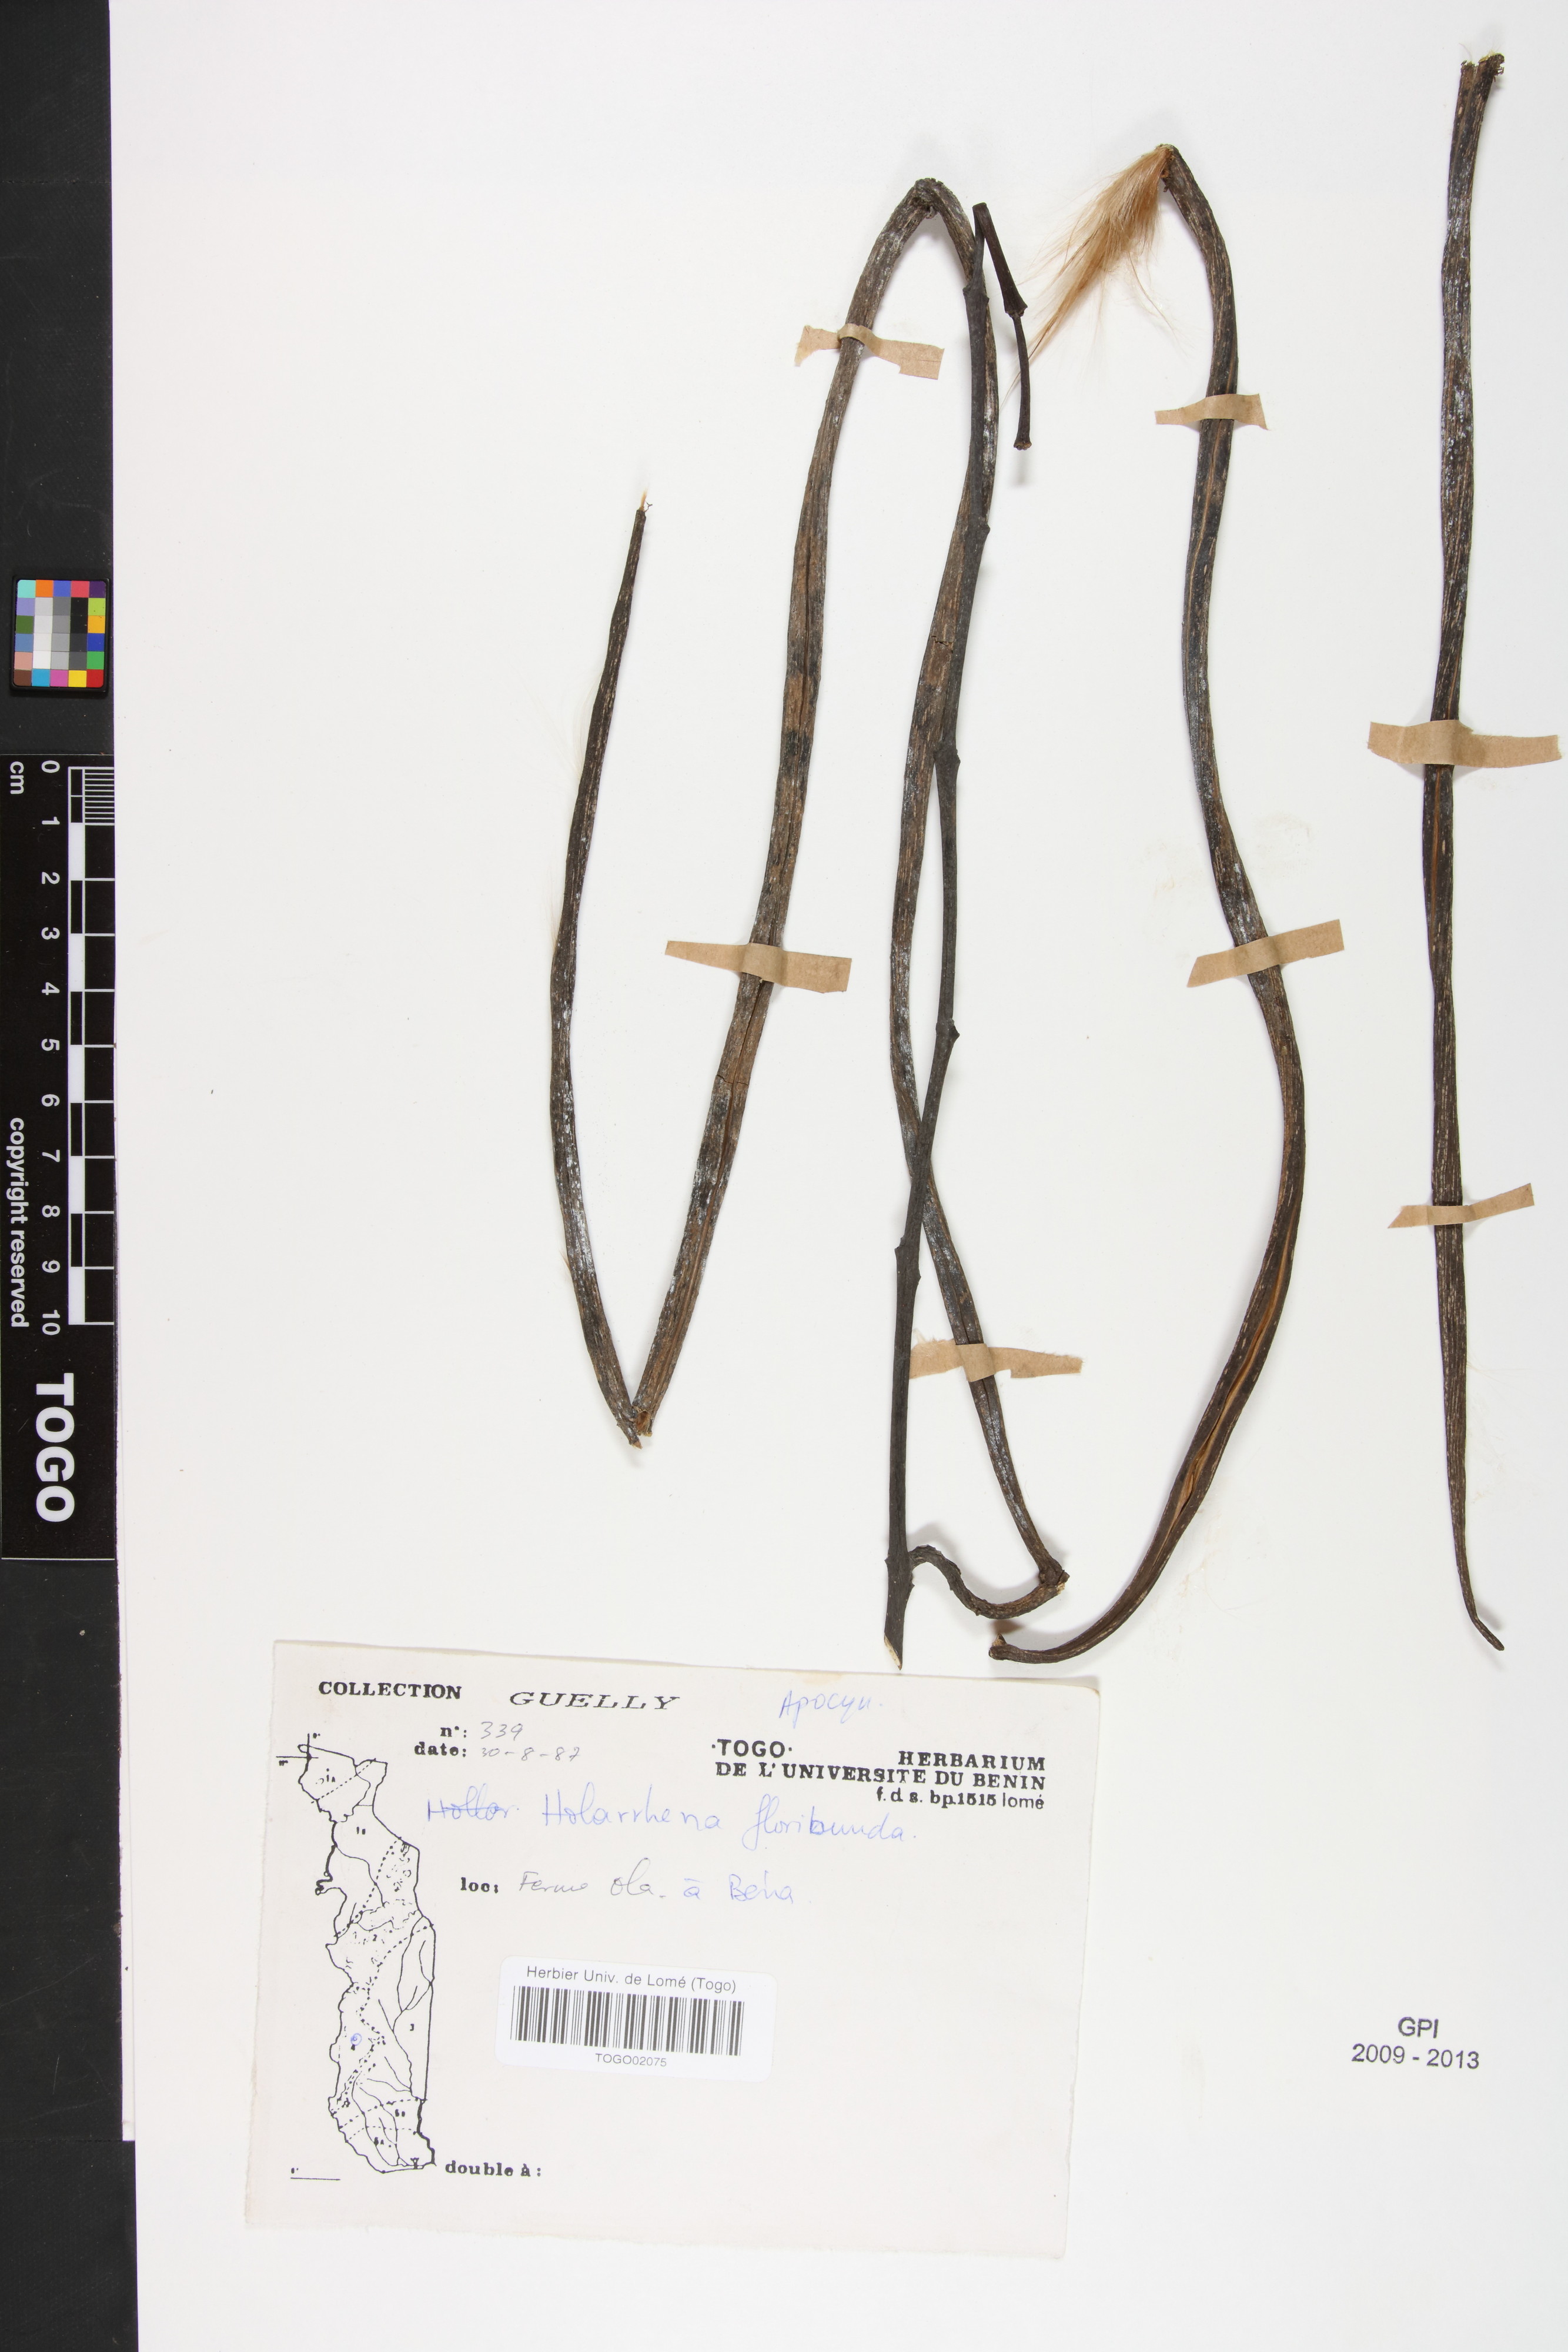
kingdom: Plantae
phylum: Tracheophyta
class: Magnoliopsida
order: Gentianales
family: Apocynaceae
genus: Holarrhena
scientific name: Holarrhena floribunda
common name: Kurchibark
